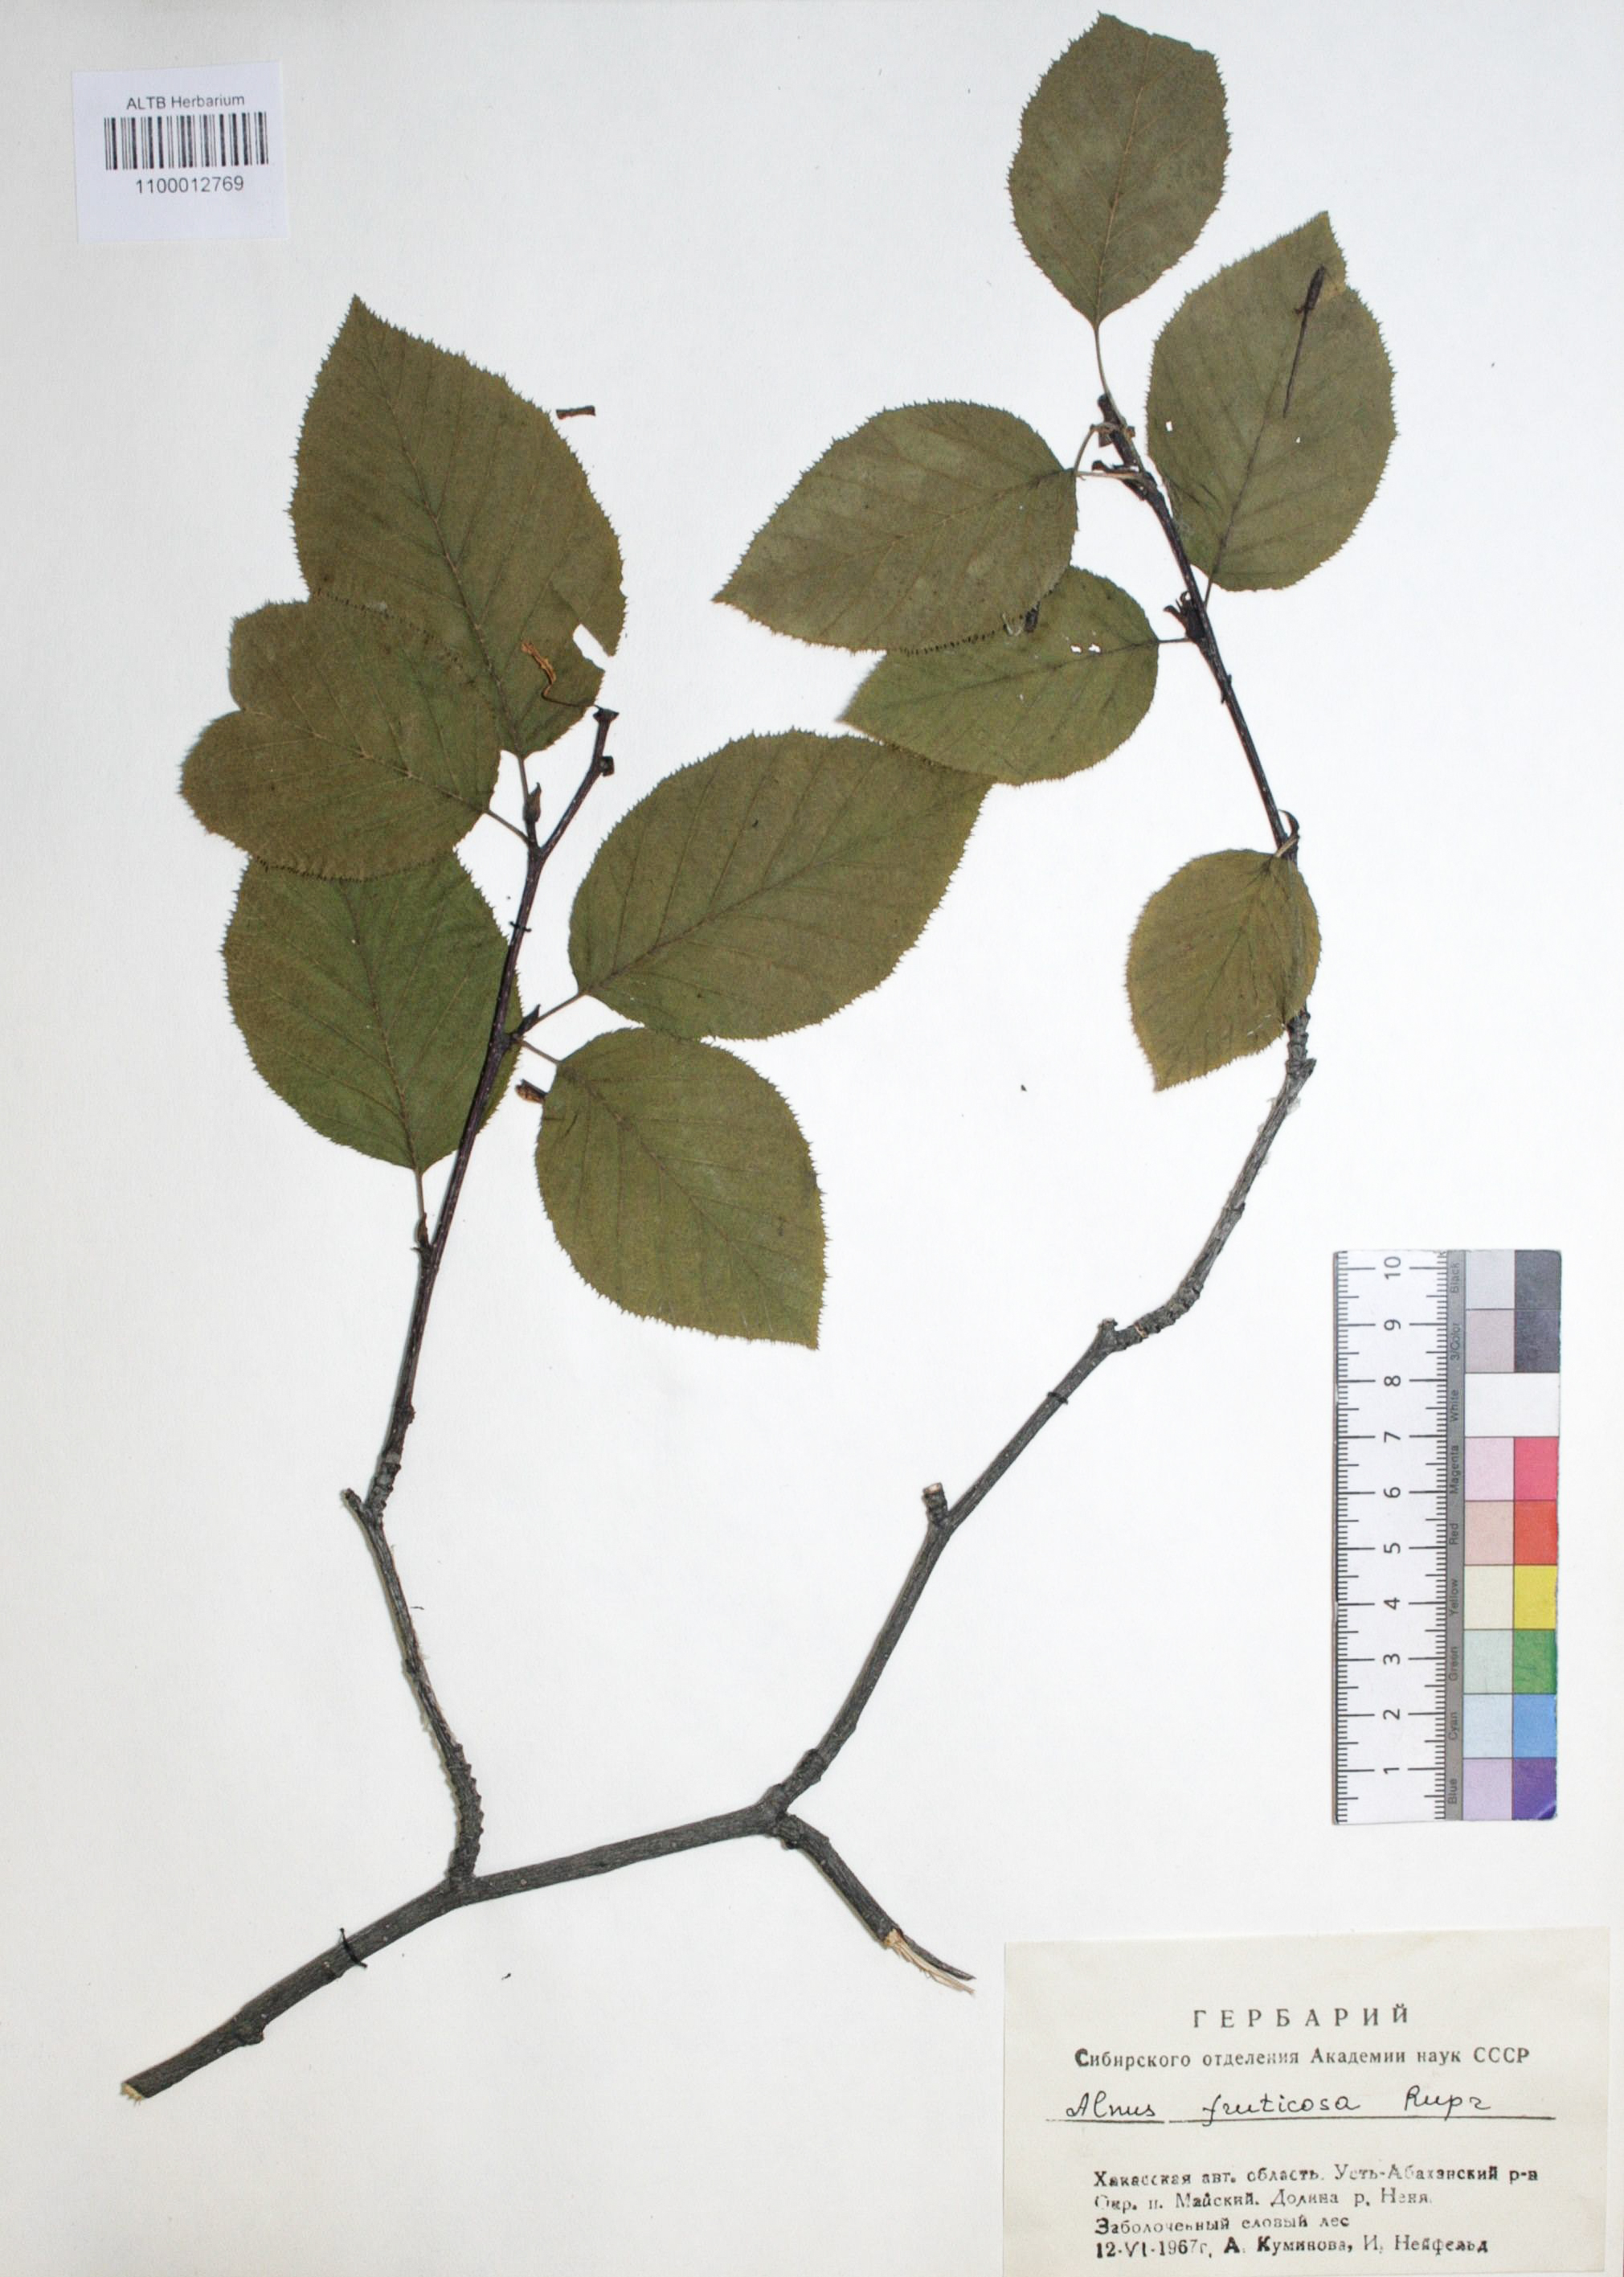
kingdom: Plantae
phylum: Tracheophyta
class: Magnoliopsida
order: Fagales
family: Betulaceae
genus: Alnus
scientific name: Alnus alnobetula
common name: Green alder
